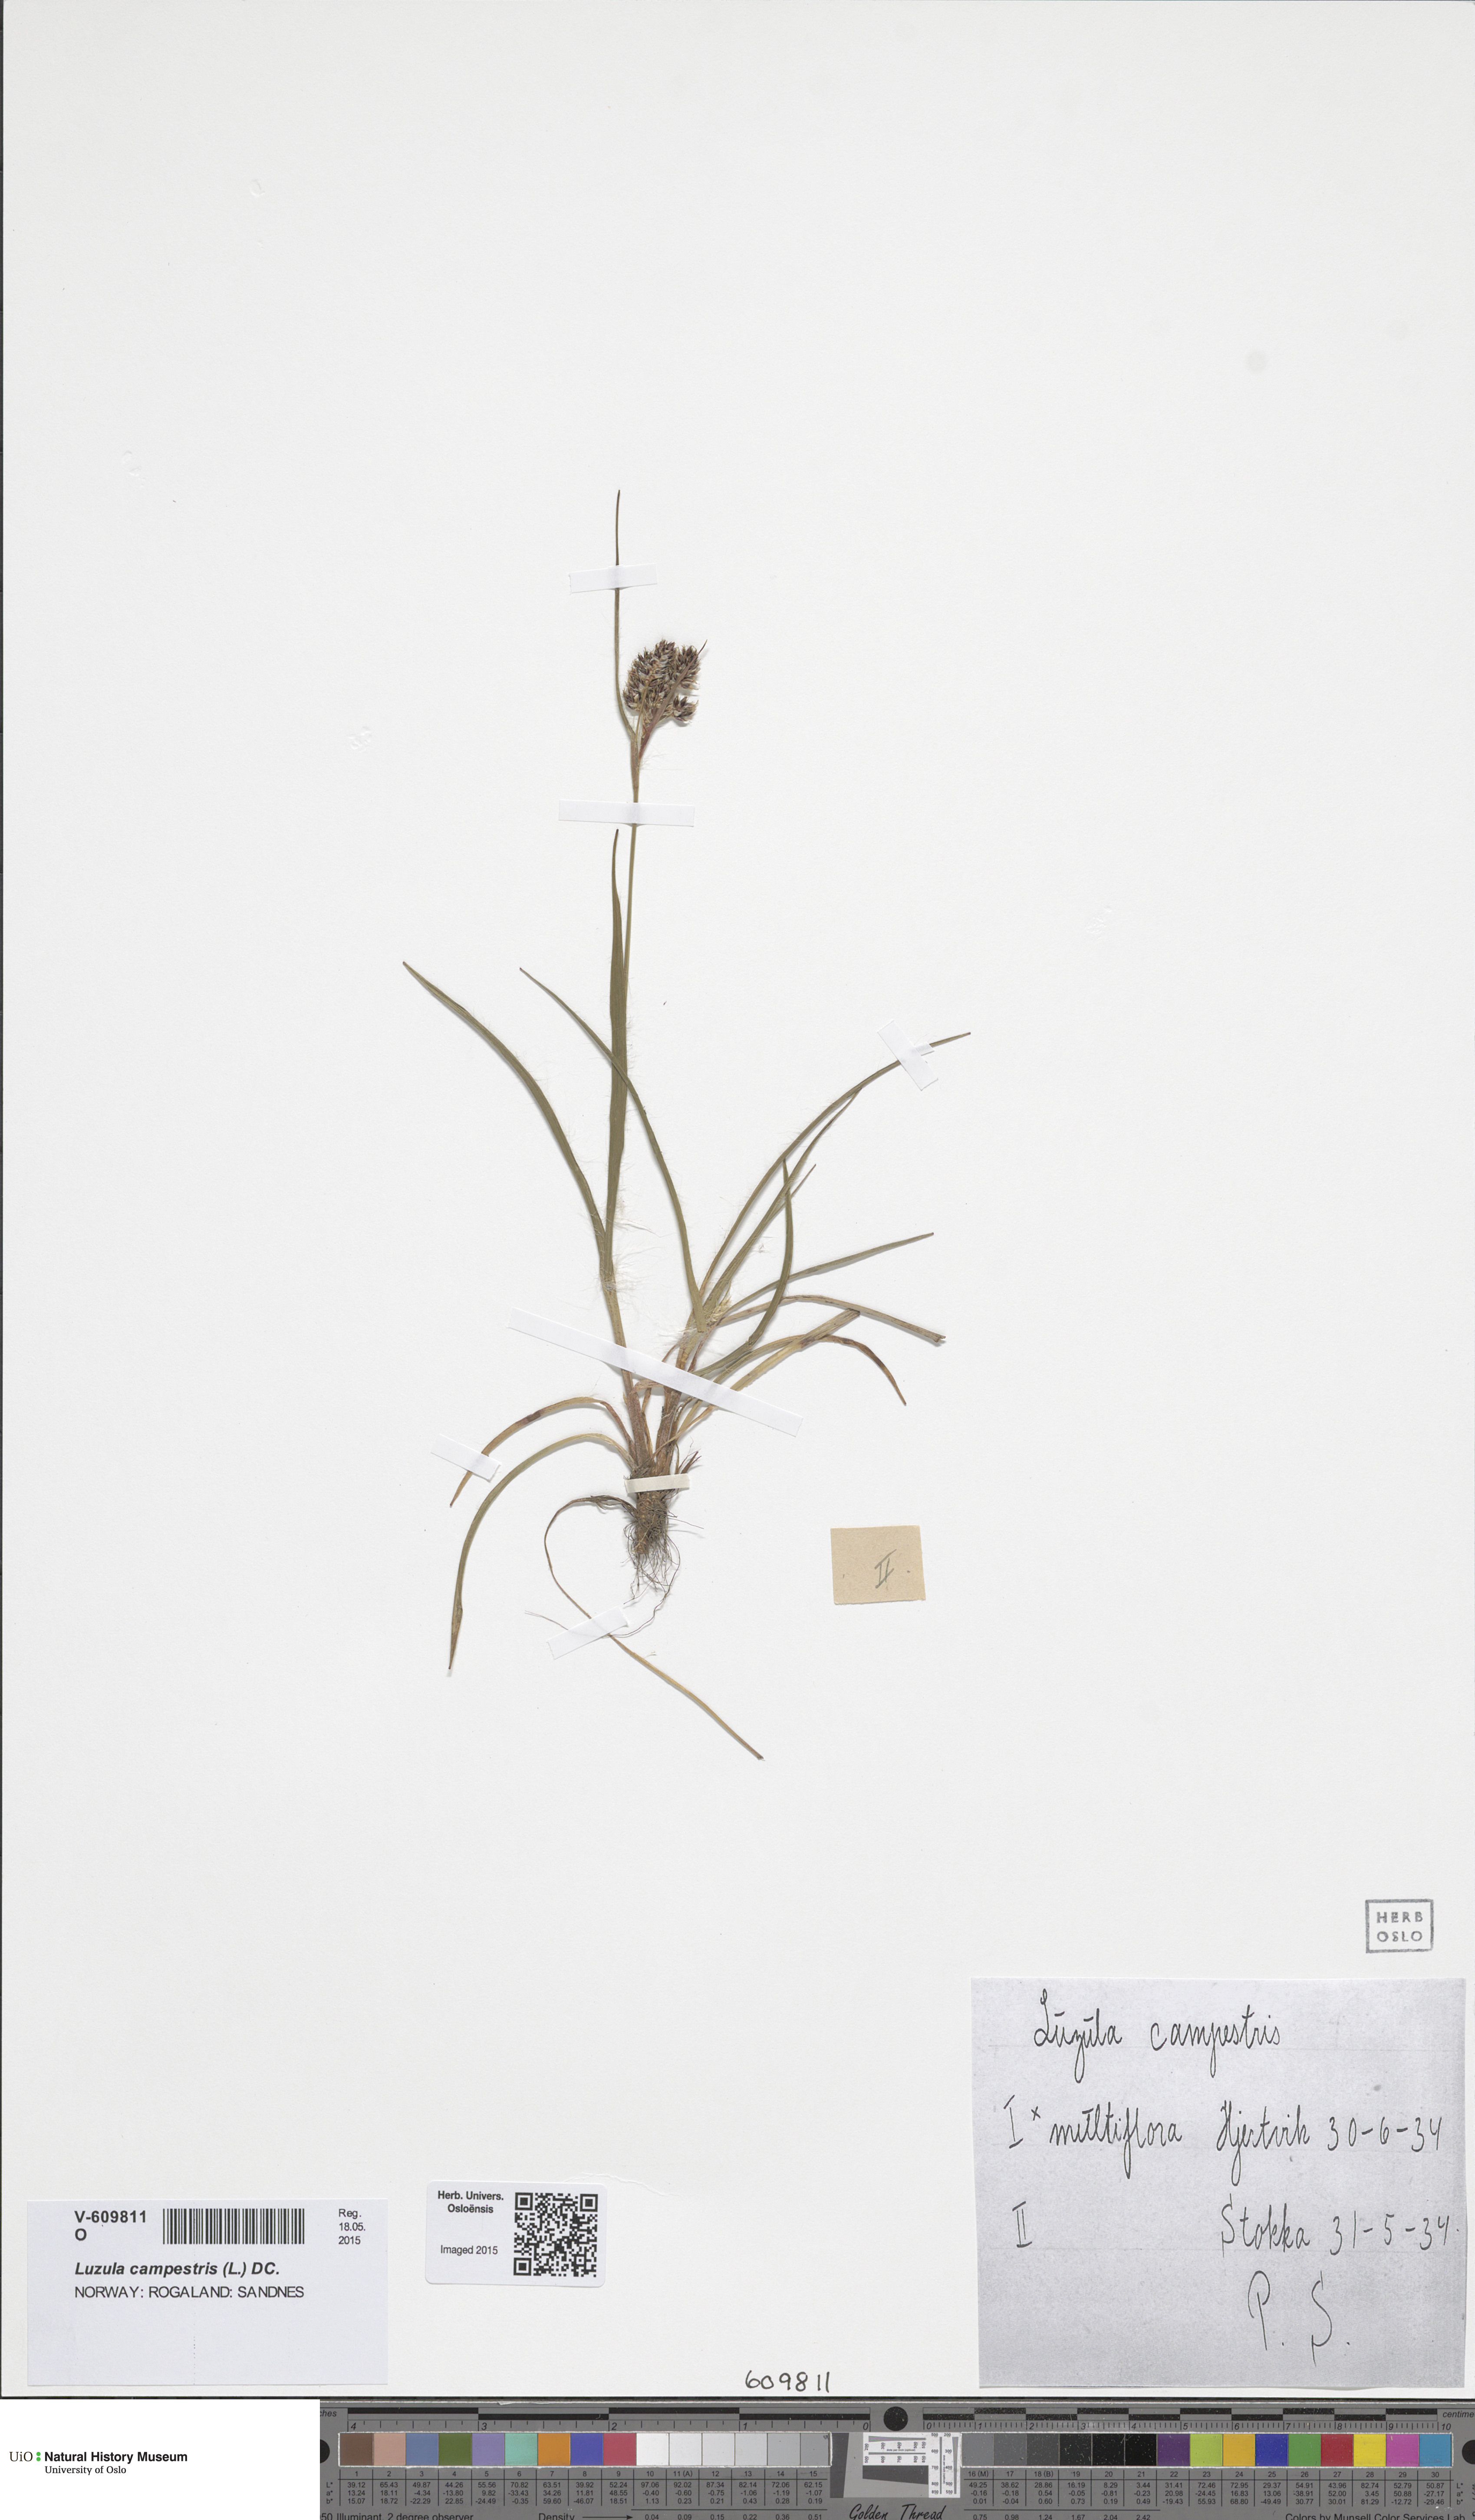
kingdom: Plantae
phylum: Tracheophyta
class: Liliopsida
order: Poales
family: Juncaceae
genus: Luzula
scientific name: Luzula multiflora
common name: Heath wood-rush
